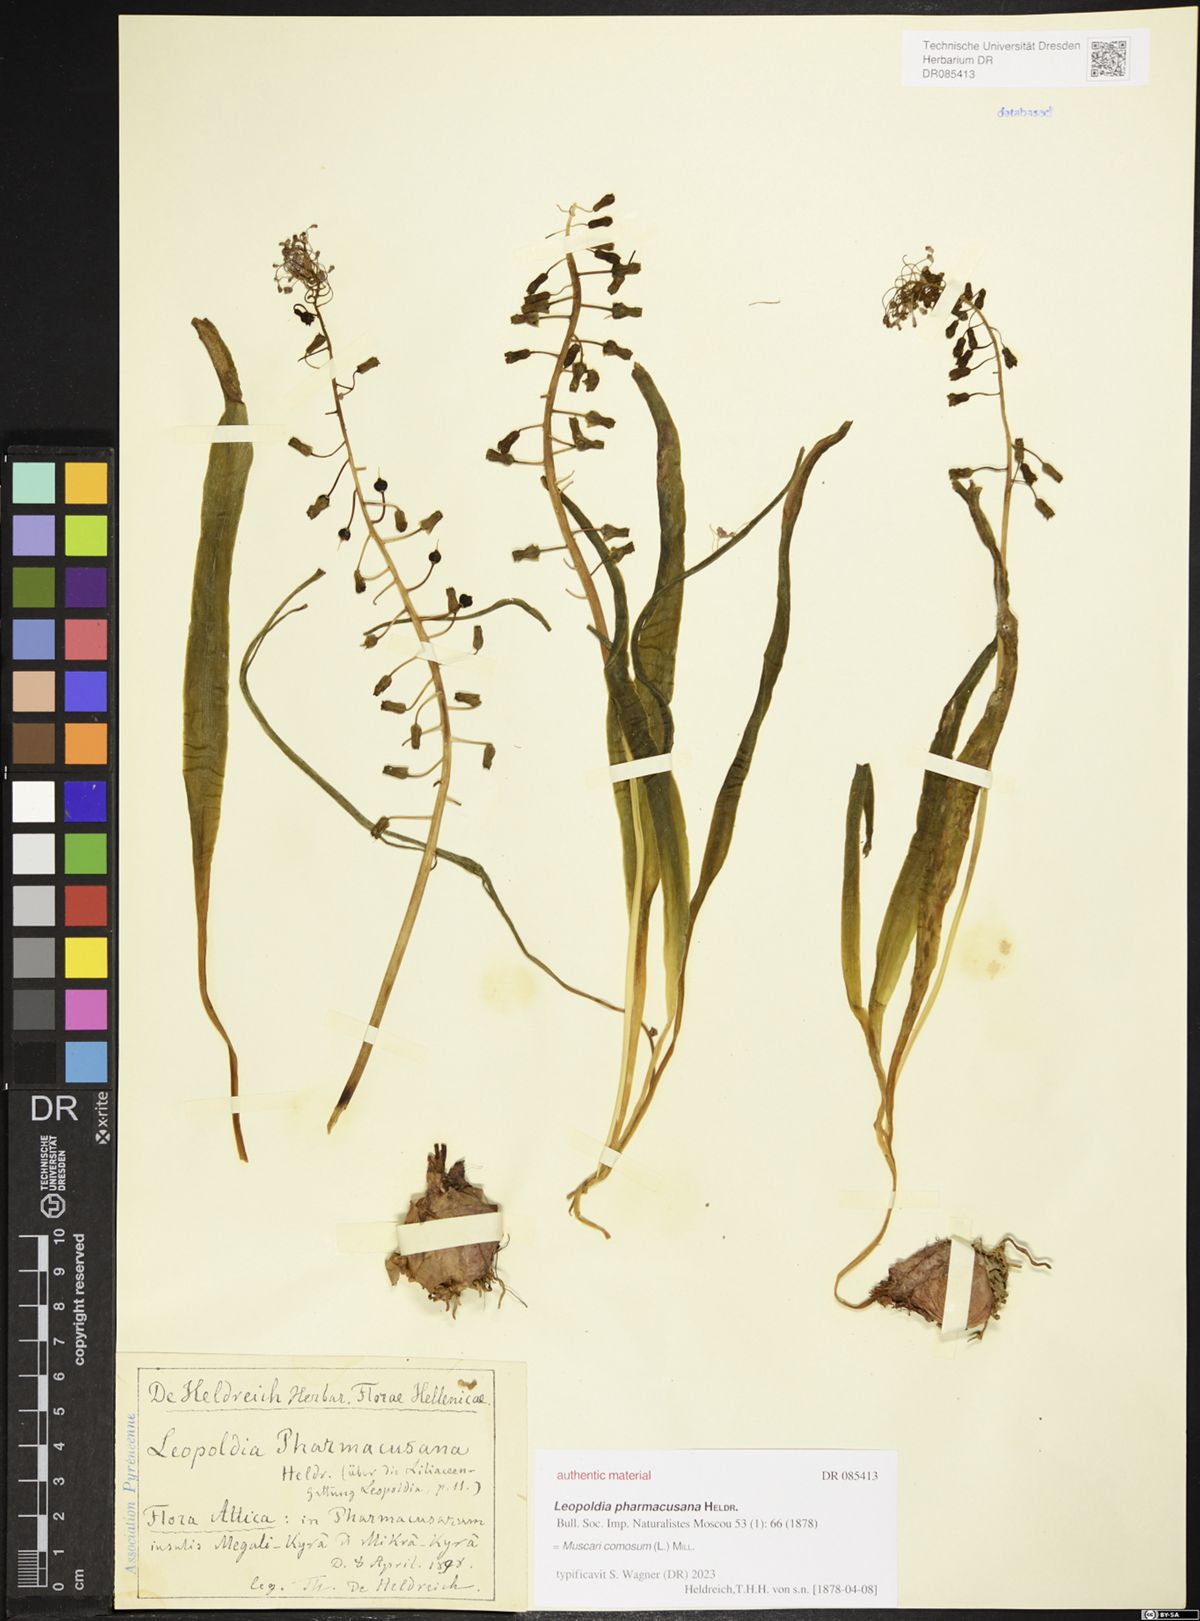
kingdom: Plantae
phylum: Tracheophyta
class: Liliopsida
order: Asparagales
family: Asparagaceae
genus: Muscari
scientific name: Muscari comosum
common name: Tassel hyacinth
